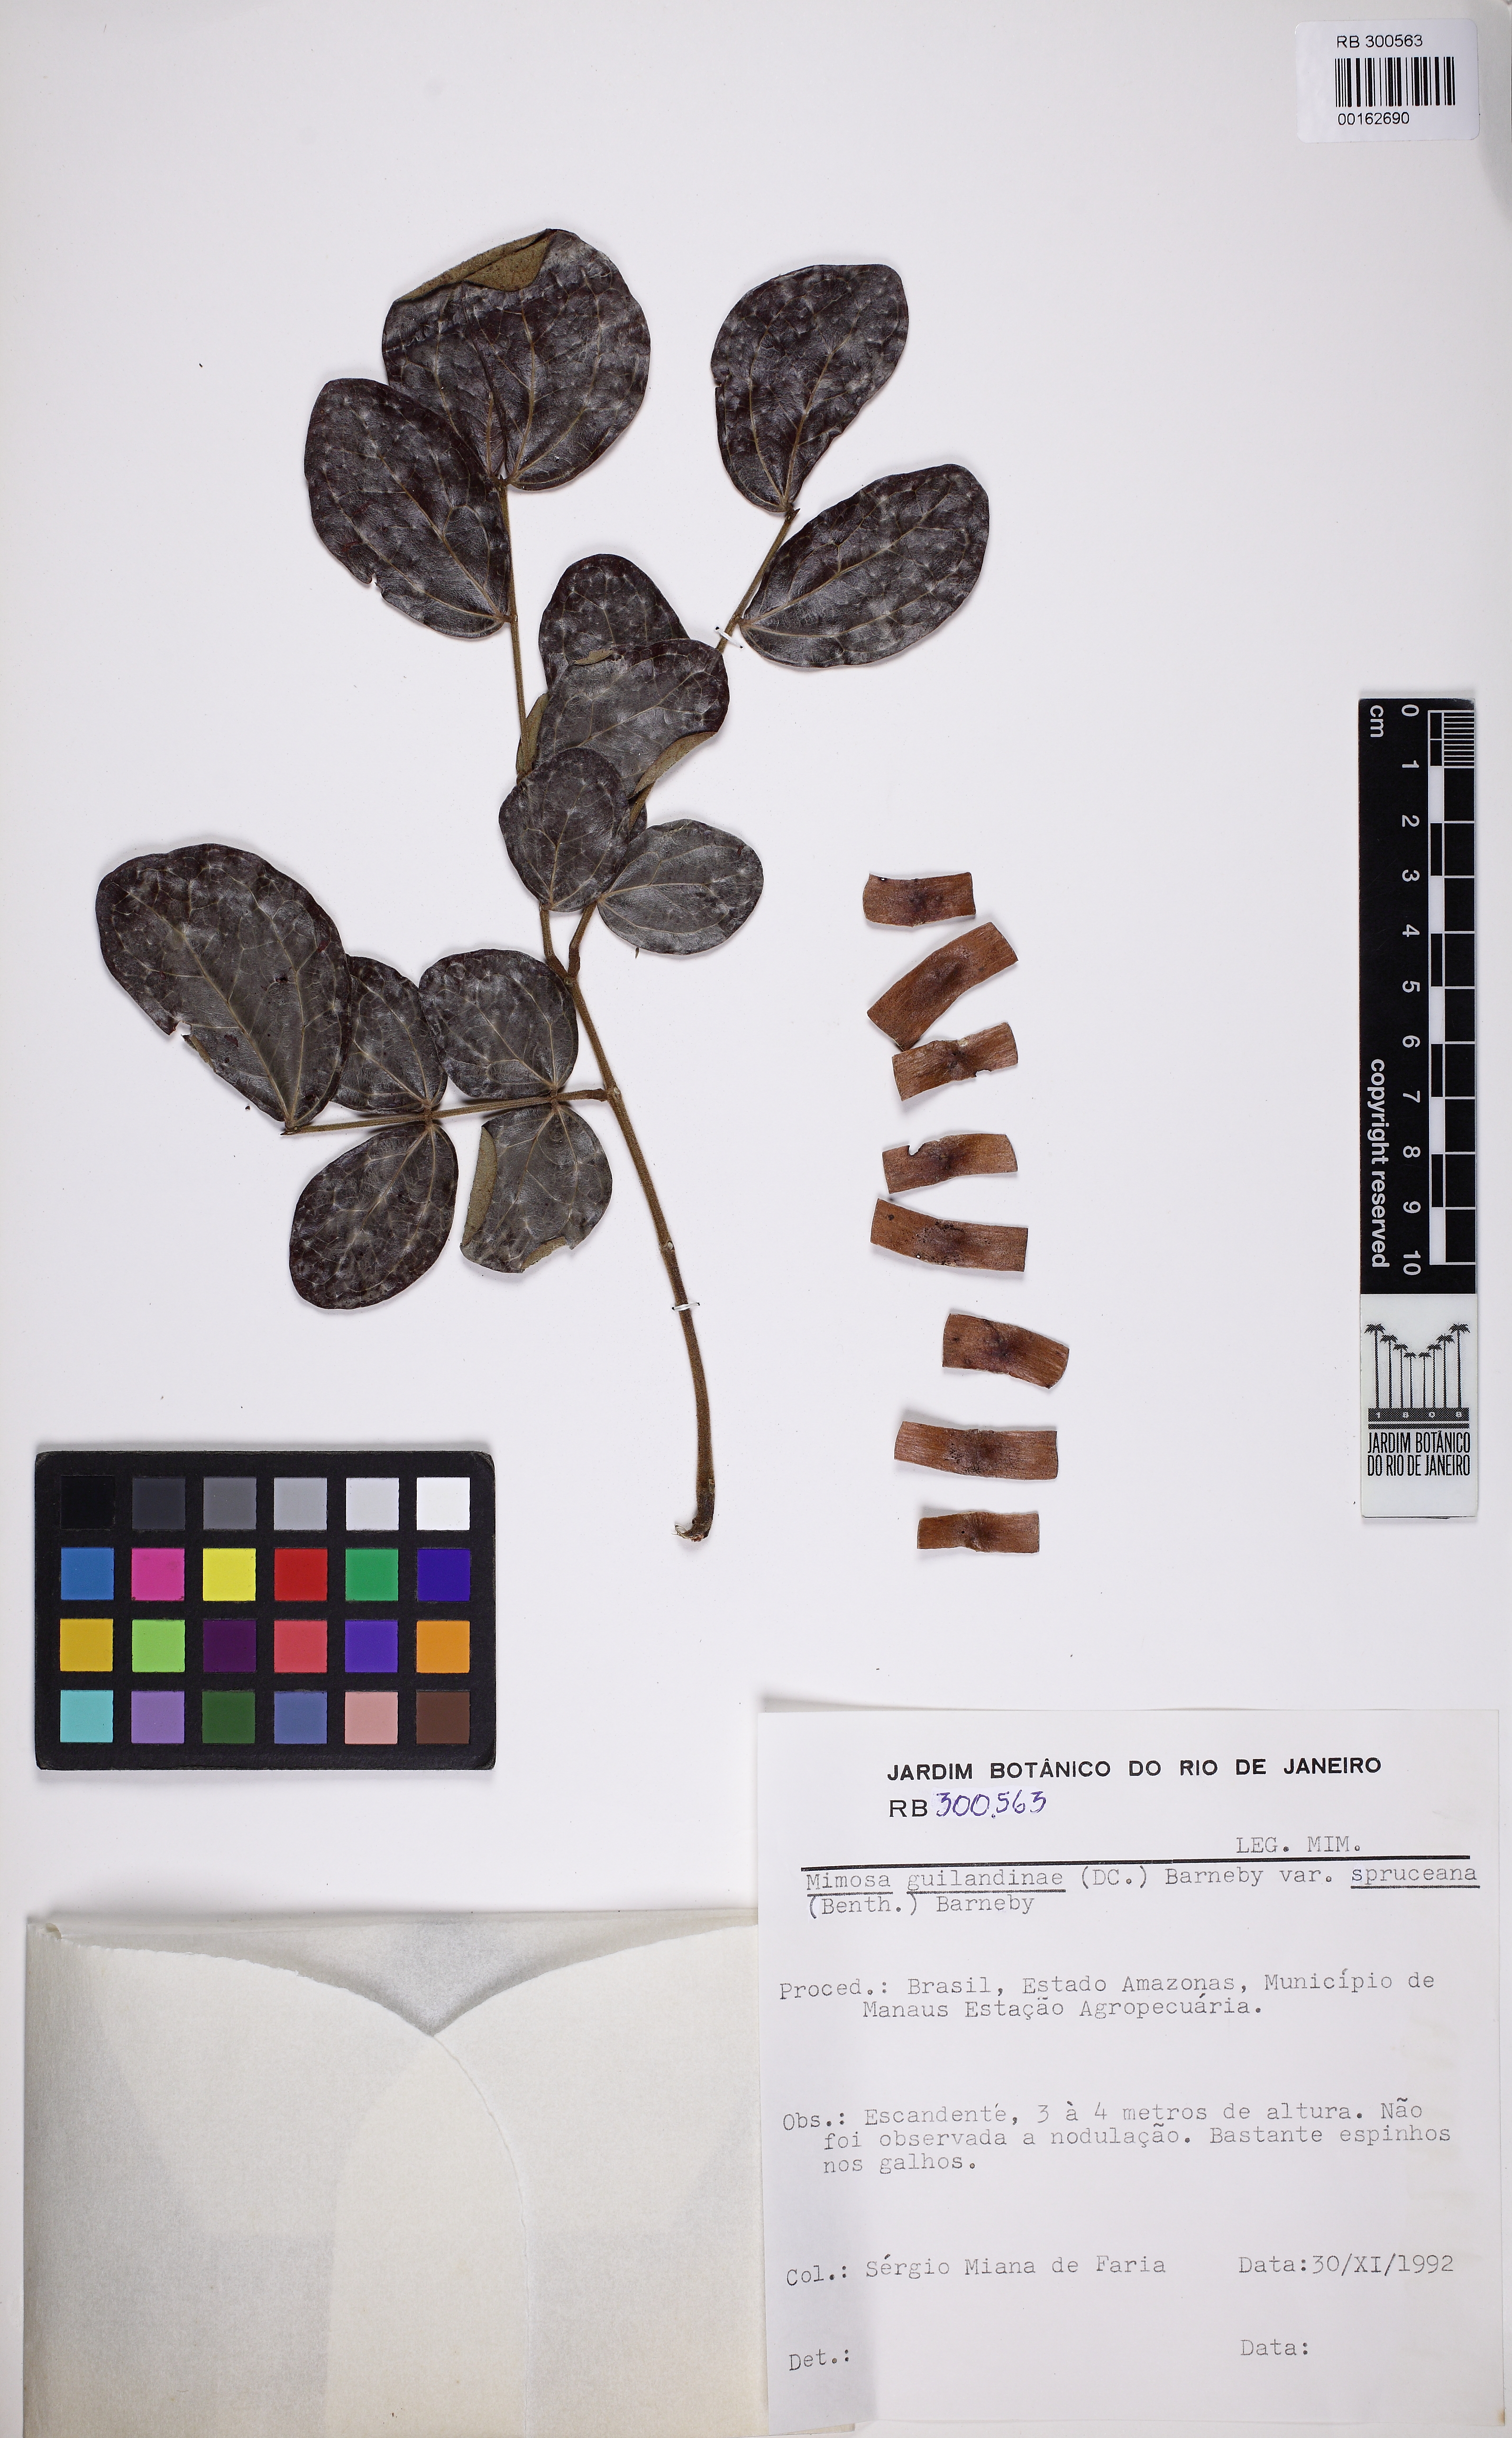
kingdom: Plantae
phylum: Tracheophyta
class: Magnoliopsida
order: Fabales
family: Fabaceae
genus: Mimosa
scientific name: Mimosa guilandinae
